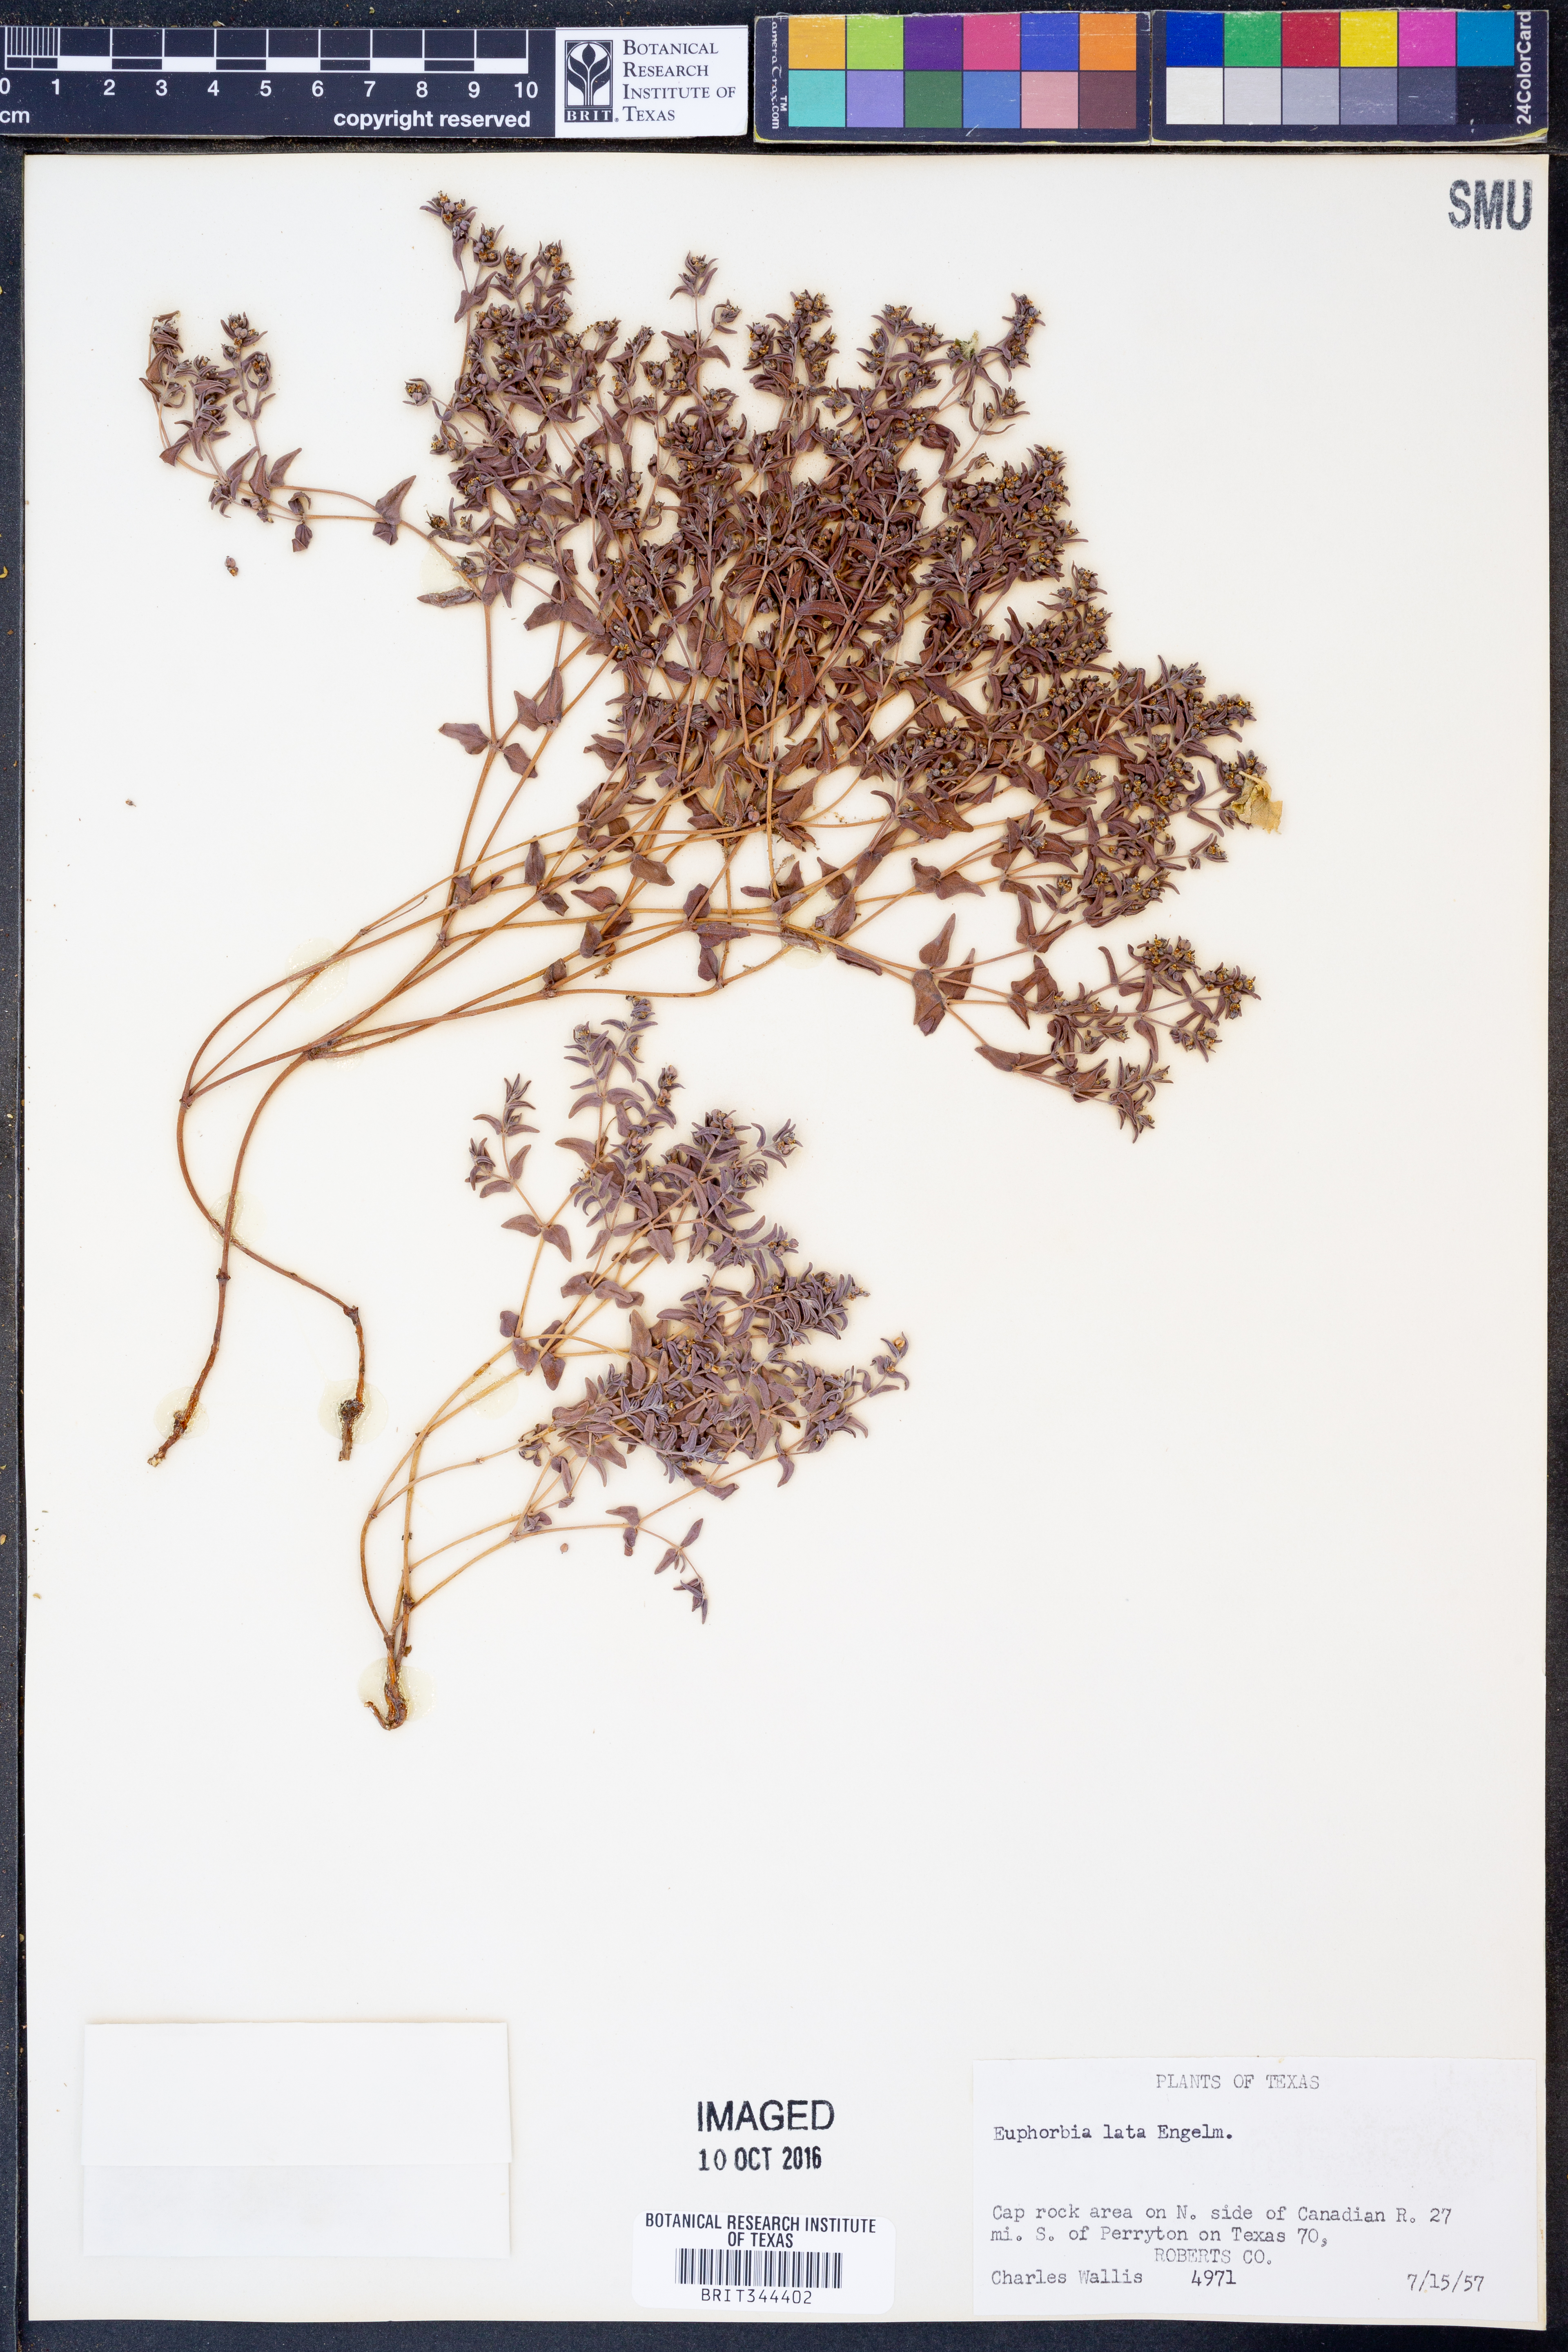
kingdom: Plantae
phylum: Tracheophyta
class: Magnoliopsida
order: Malpighiales
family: Euphorbiaceae
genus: Euphorbia
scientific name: Euphorbia lata
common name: Hoary euphorbia
